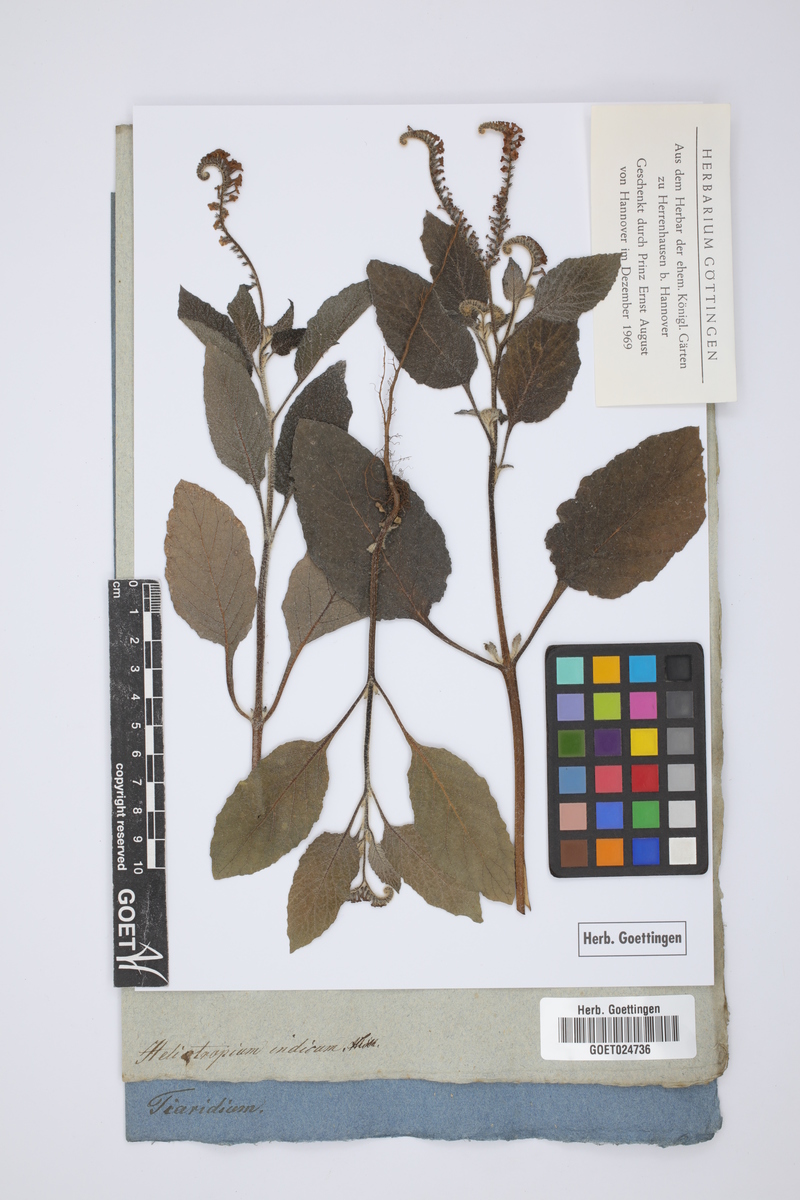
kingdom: Plantae
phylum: Tracheophyta
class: Magnoliopsida
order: Boraginales
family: Heliotropiaceae
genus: Heliotropium
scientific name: Heliotropium indicum
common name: Indian heliotrope
